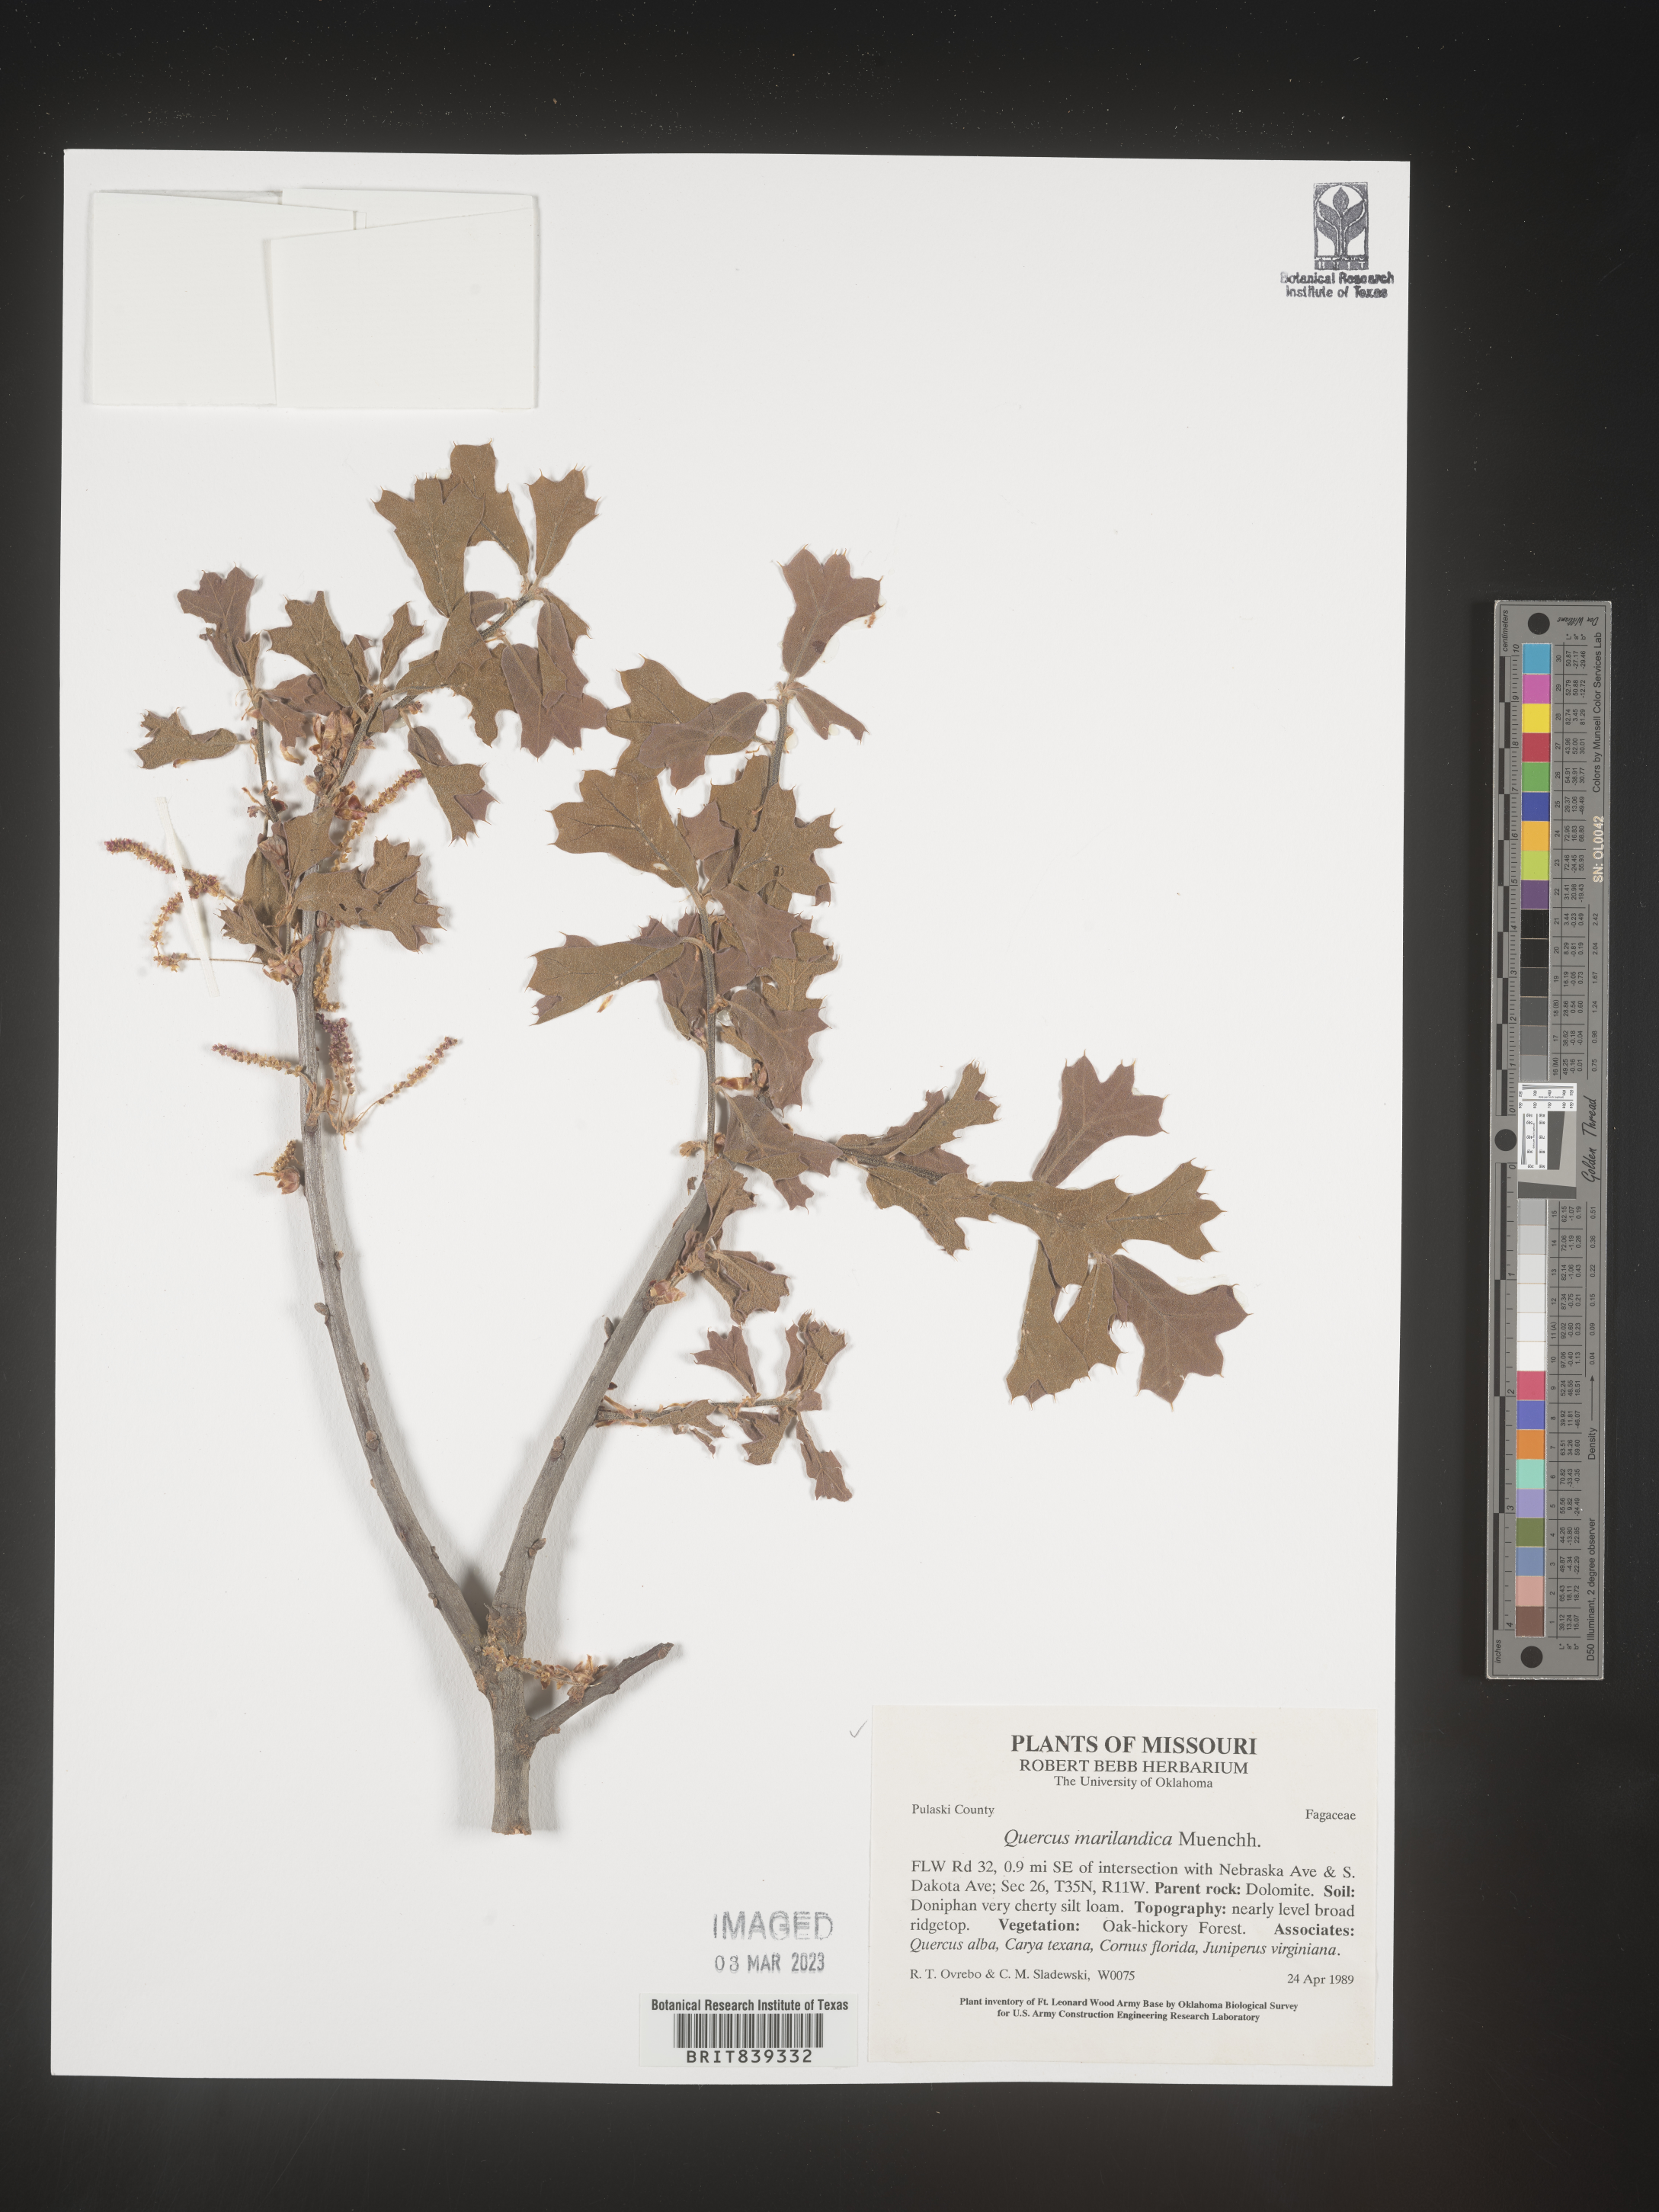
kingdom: Plantae
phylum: Tracheophyta
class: Magnoliopsida
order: Fagales
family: Fagaceae
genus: Quercus
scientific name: Quercus marilandica
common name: Blackjack oak
